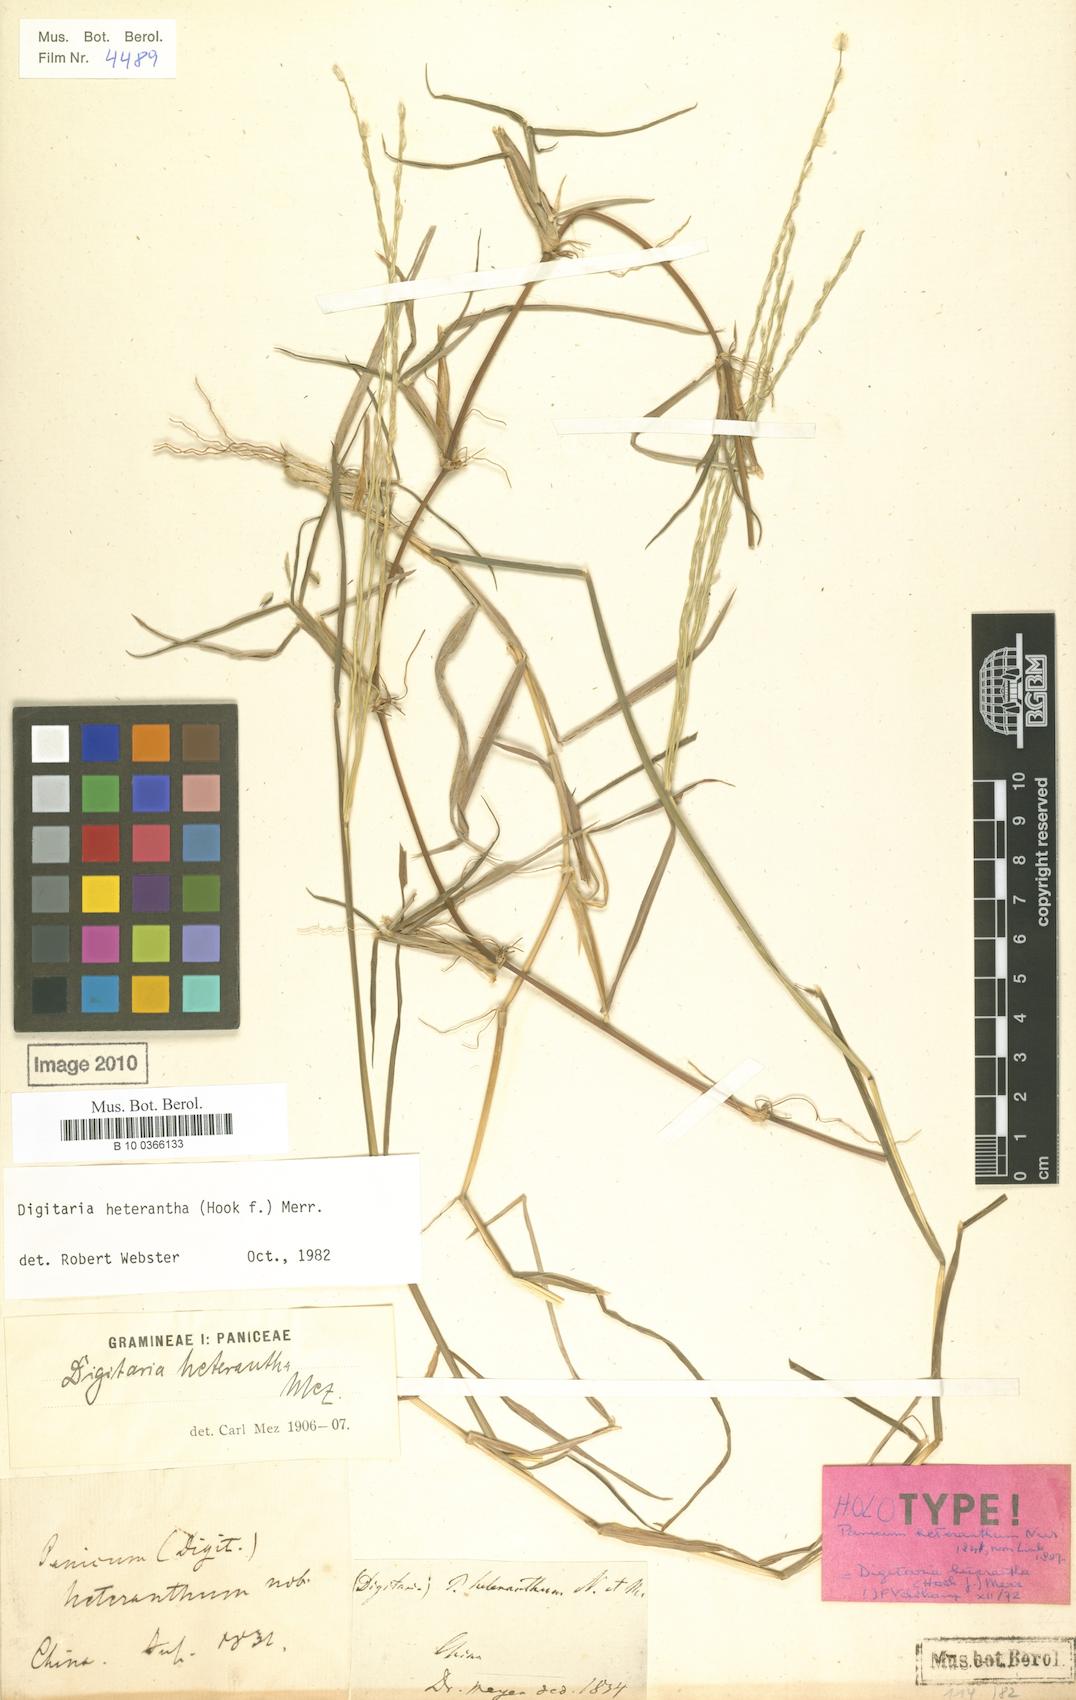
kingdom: Plantae
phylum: Tracheophyta
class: Liliopsida
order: Poales
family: Poaceae
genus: Digitaria
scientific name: Digitaria heterantha
